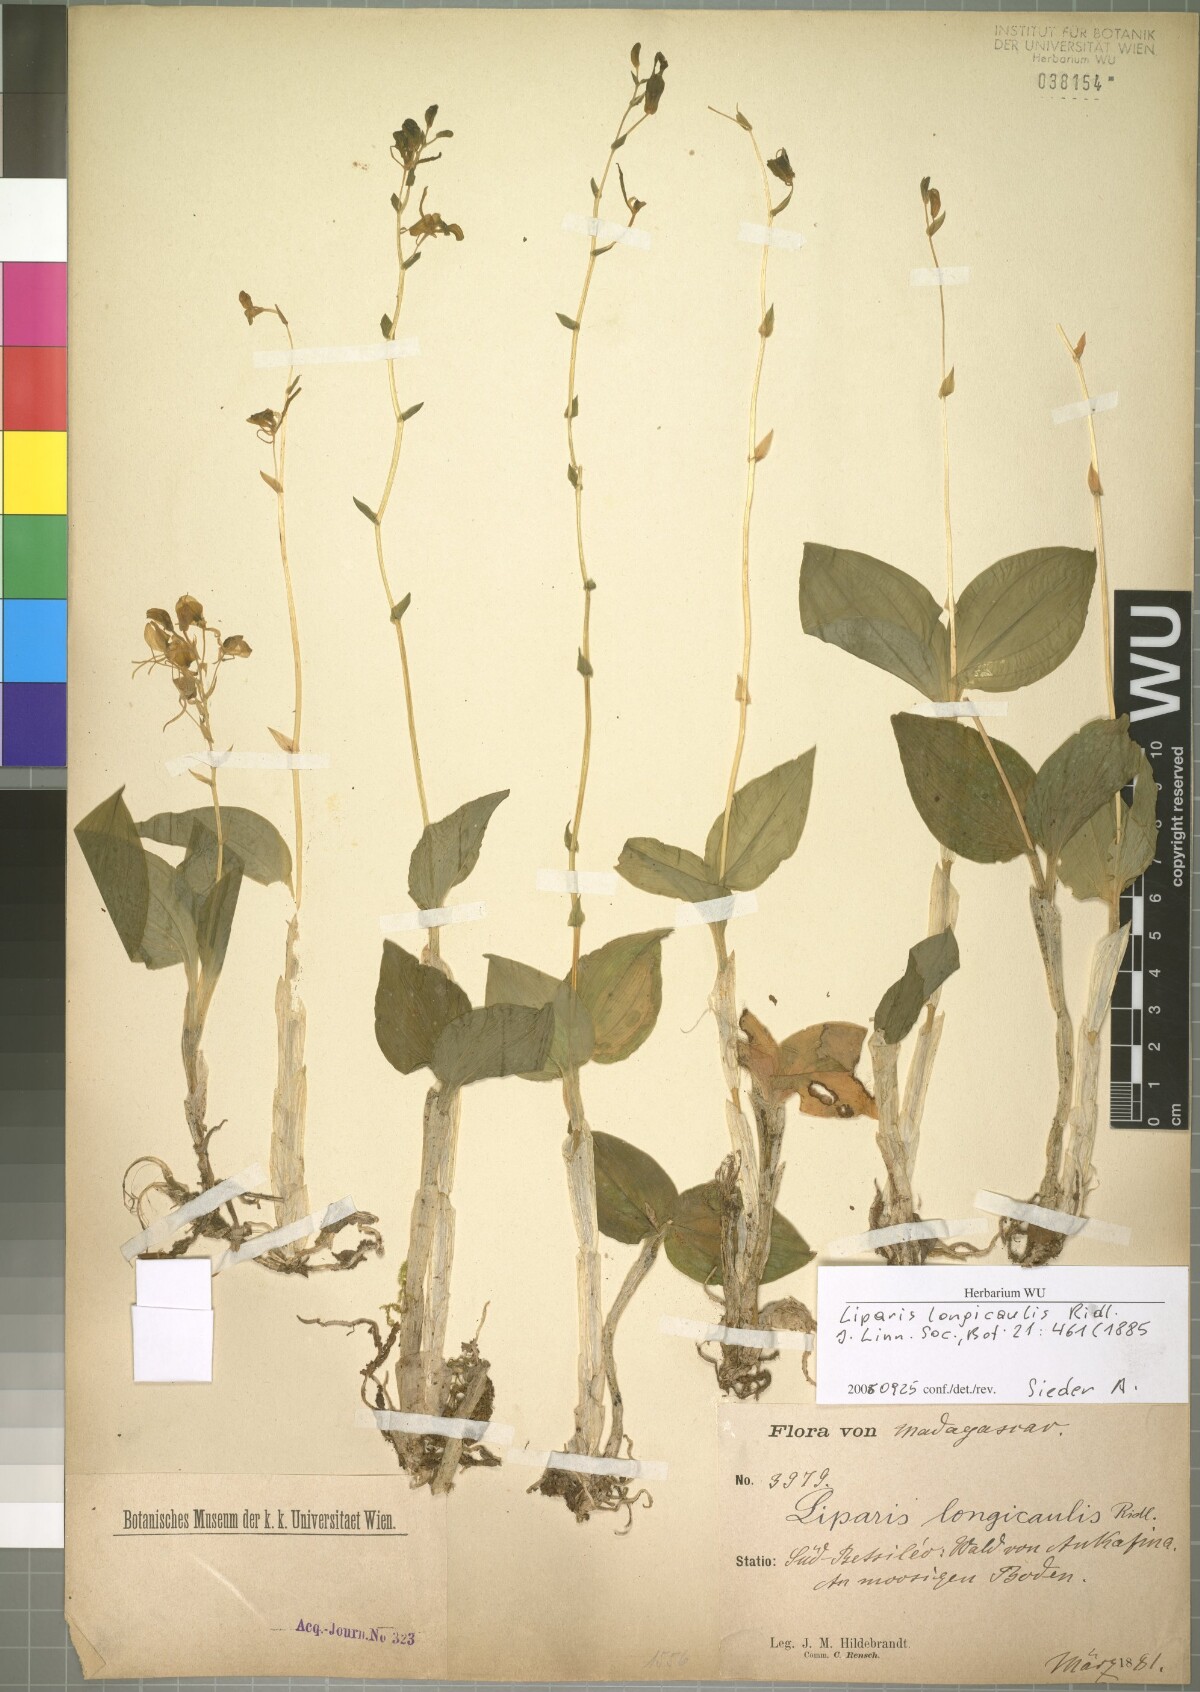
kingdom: Plantae
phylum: Tracheophyta
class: Liliopsida
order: Asparagales
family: Orchidaceae
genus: Liparis
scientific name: Liparis longicaulis
